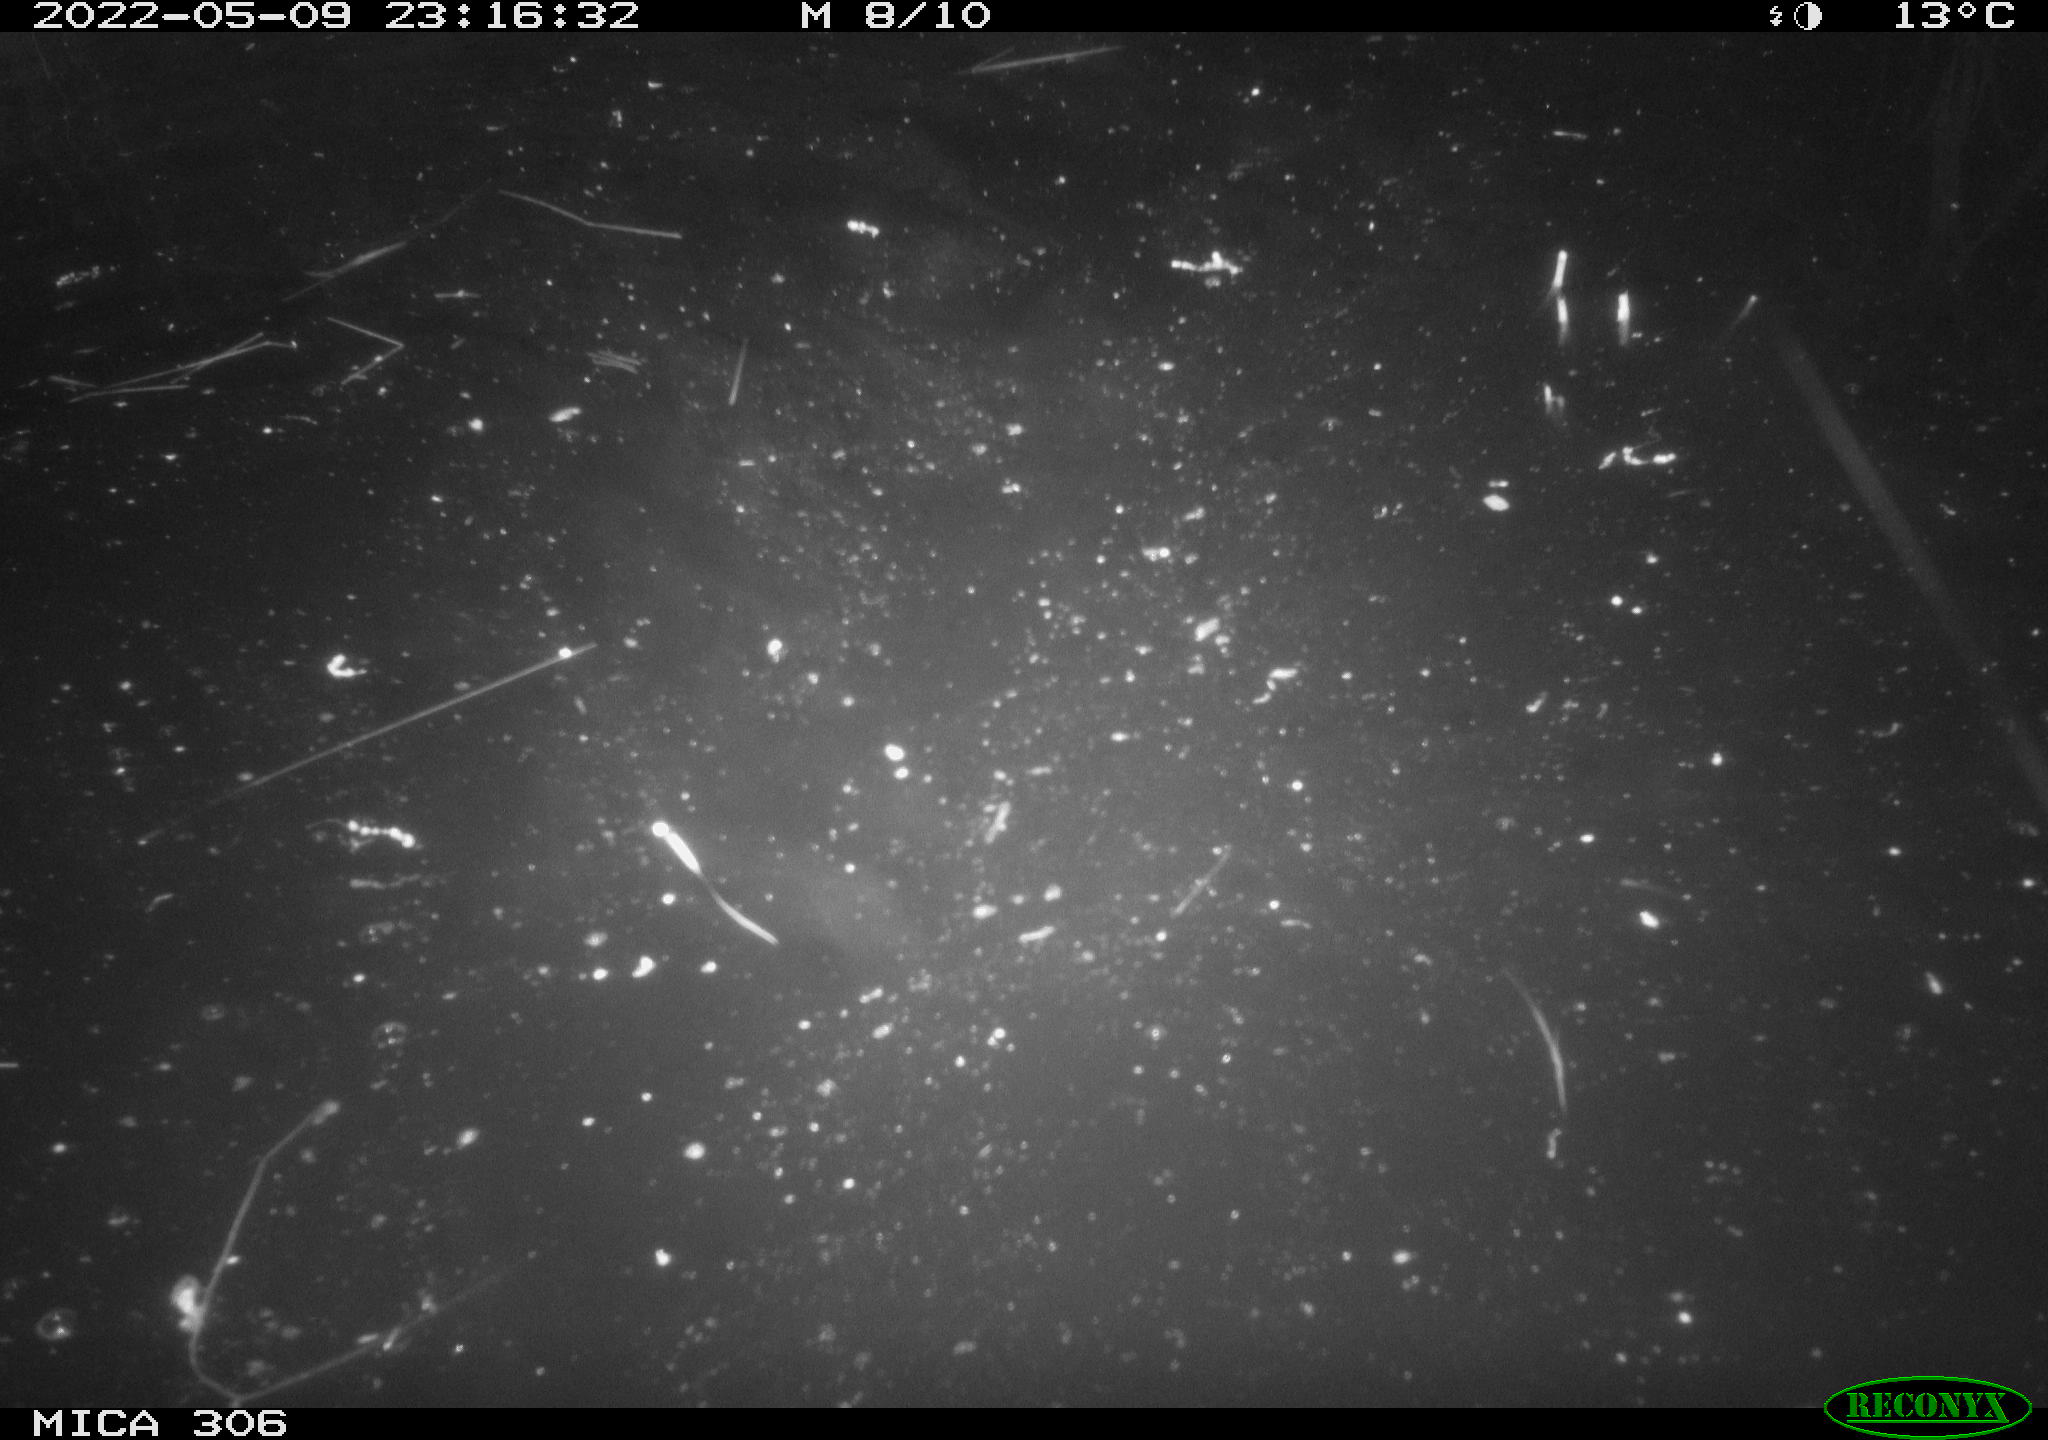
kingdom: Animalia
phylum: Chordata
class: Mammalia
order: Rodentia
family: Cricetidae
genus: Ondatra
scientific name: Ondatra zibethicus
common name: Muskrat
